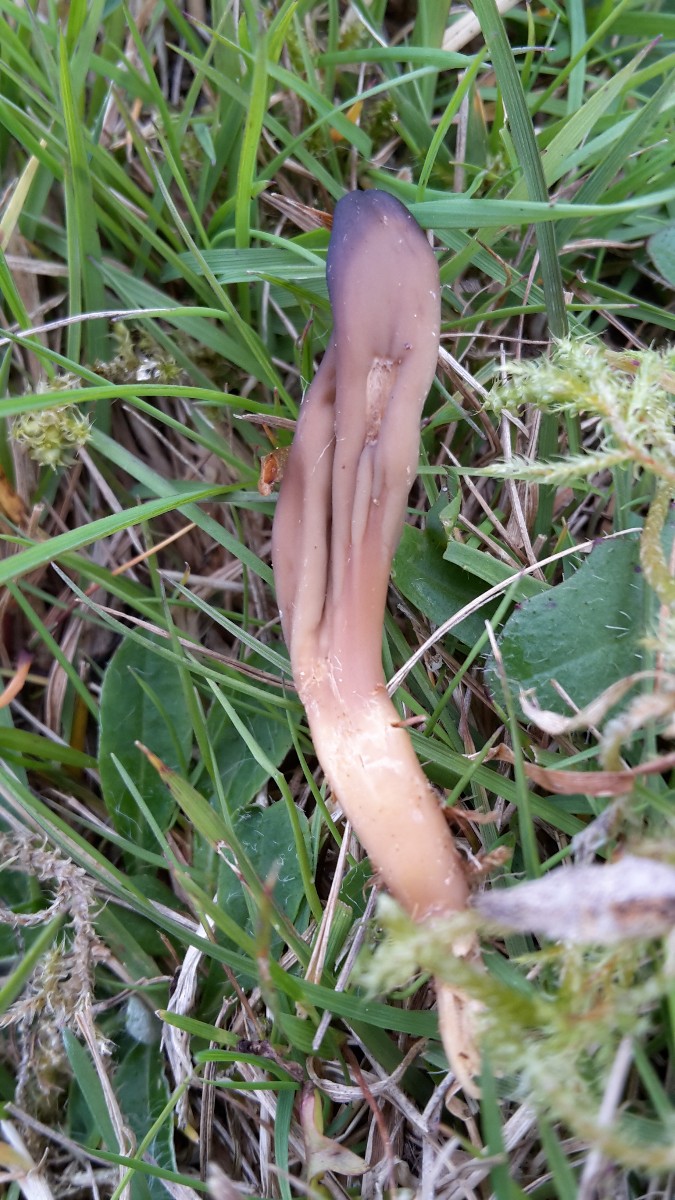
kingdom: Fungi
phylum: Ascomycota
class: Leotiomycetes
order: Leotiales
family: Leotiaceae
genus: Microglossum
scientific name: Microglossum olivaceum
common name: olivenbrun farvetunge
